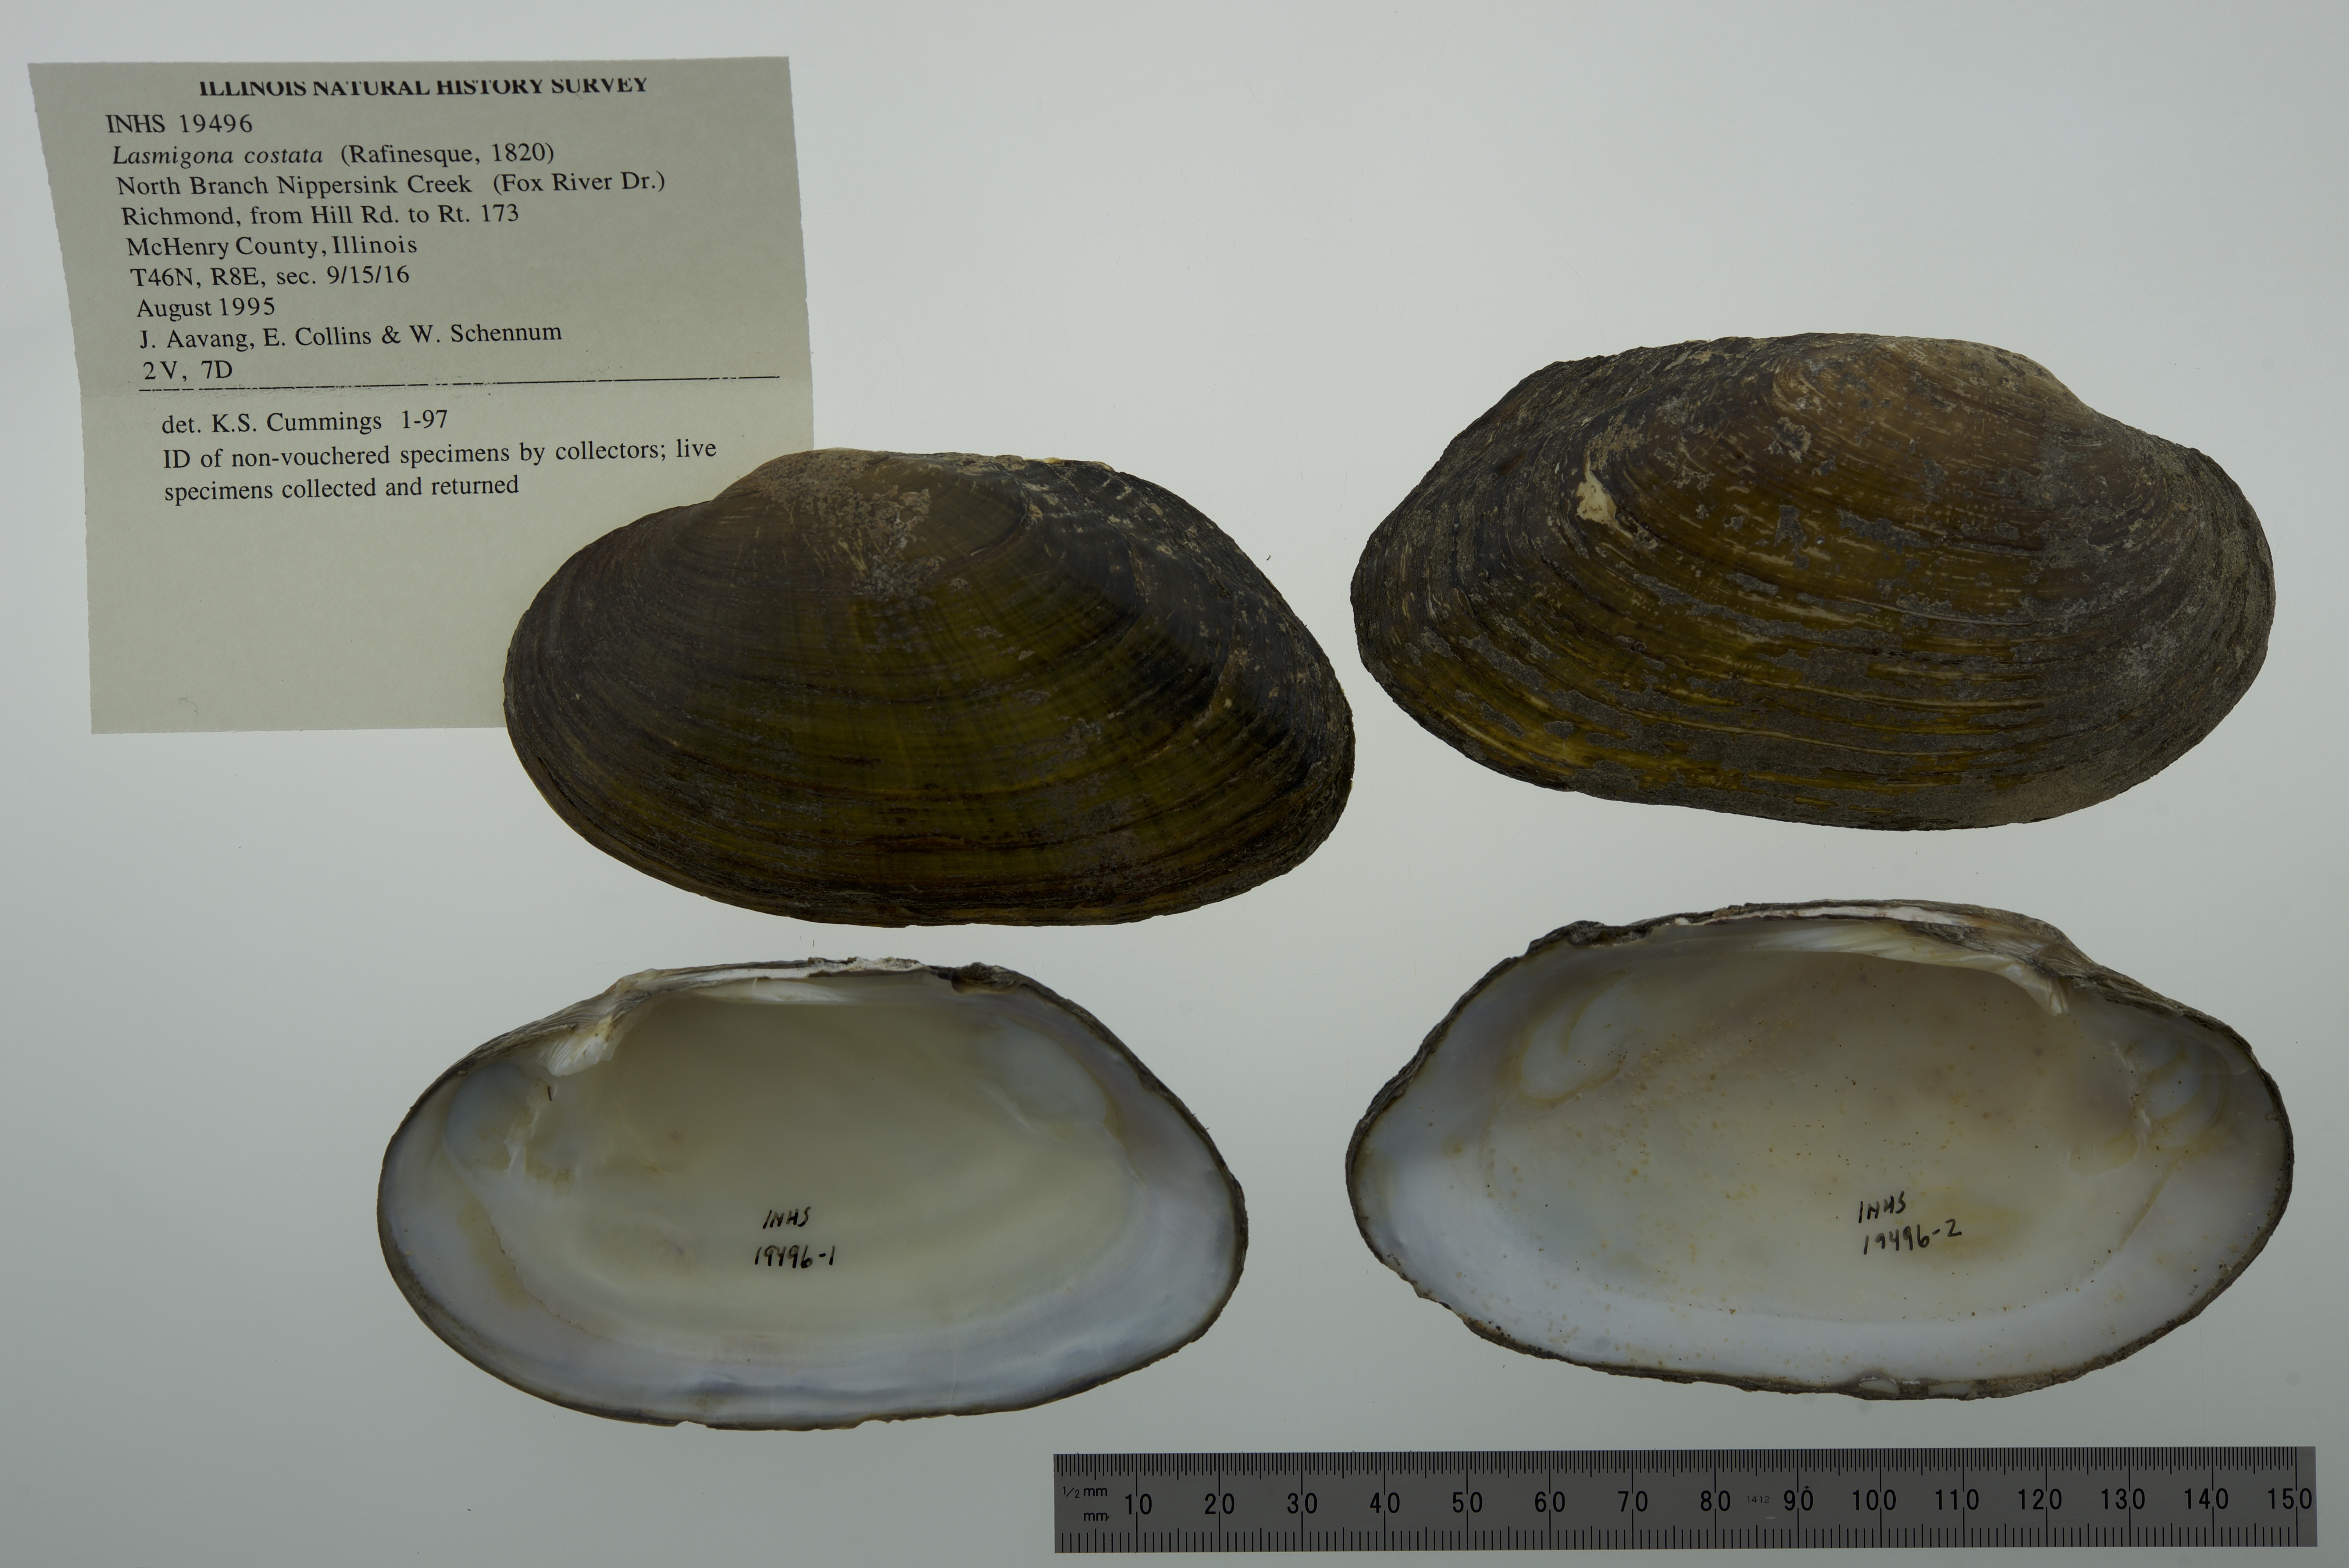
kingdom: Animalia
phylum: Mollusca
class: Bivalvia
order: Unionida
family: Unionidae
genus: Lasmigona
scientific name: Lasmigona costata
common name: Flutedshell
